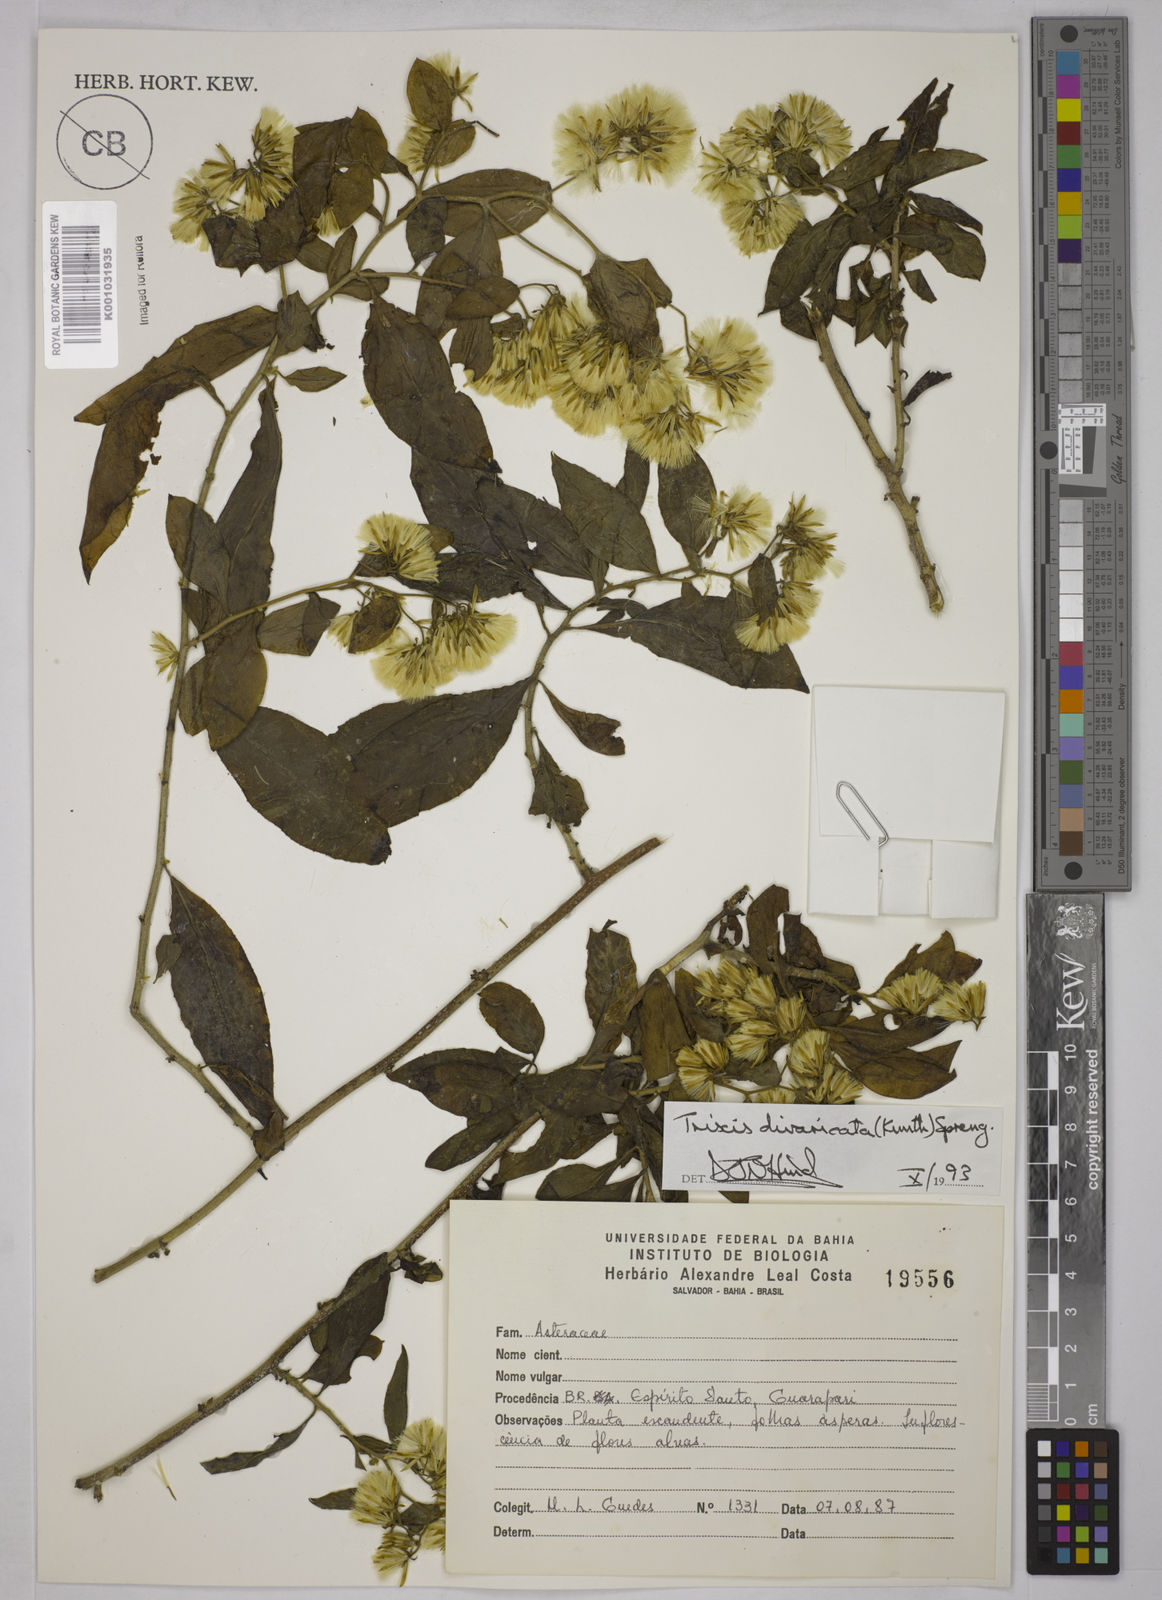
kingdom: Plantae
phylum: Tracheophyta
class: Magnoliopsida
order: Asterales
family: Asteraceae
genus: Trixis
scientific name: Trixis divaricata
